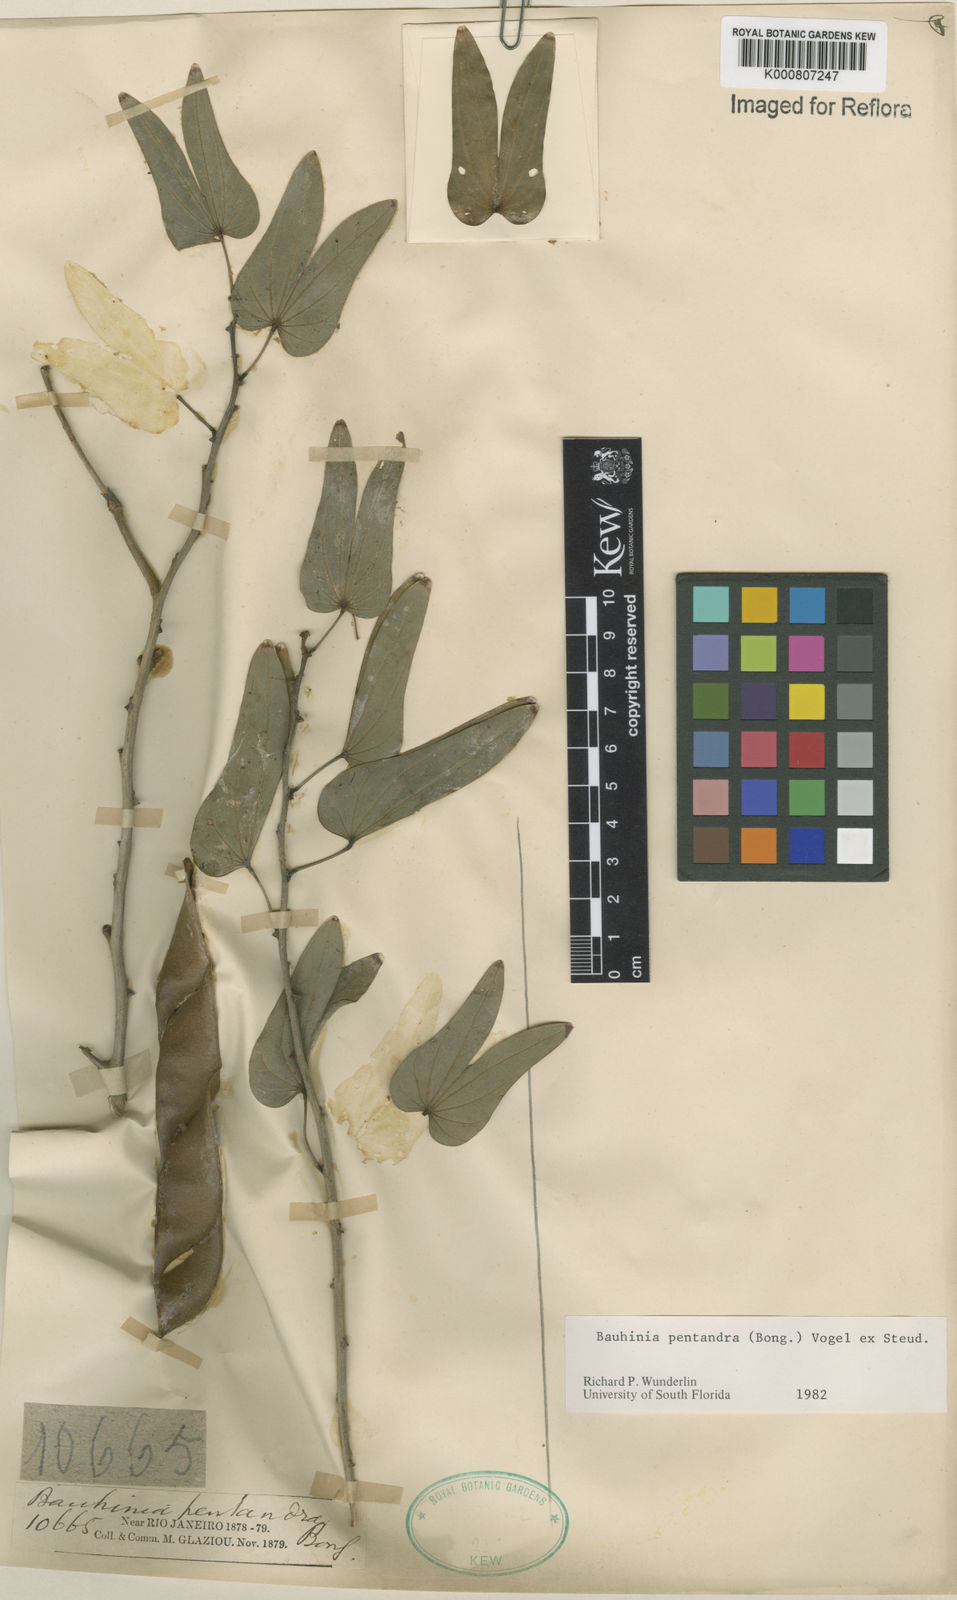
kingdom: Plantae
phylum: Tracheophyta
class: Magnoliopsida
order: Fabales
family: Fabaceae
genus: Bauhinia
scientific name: Bauhinia
